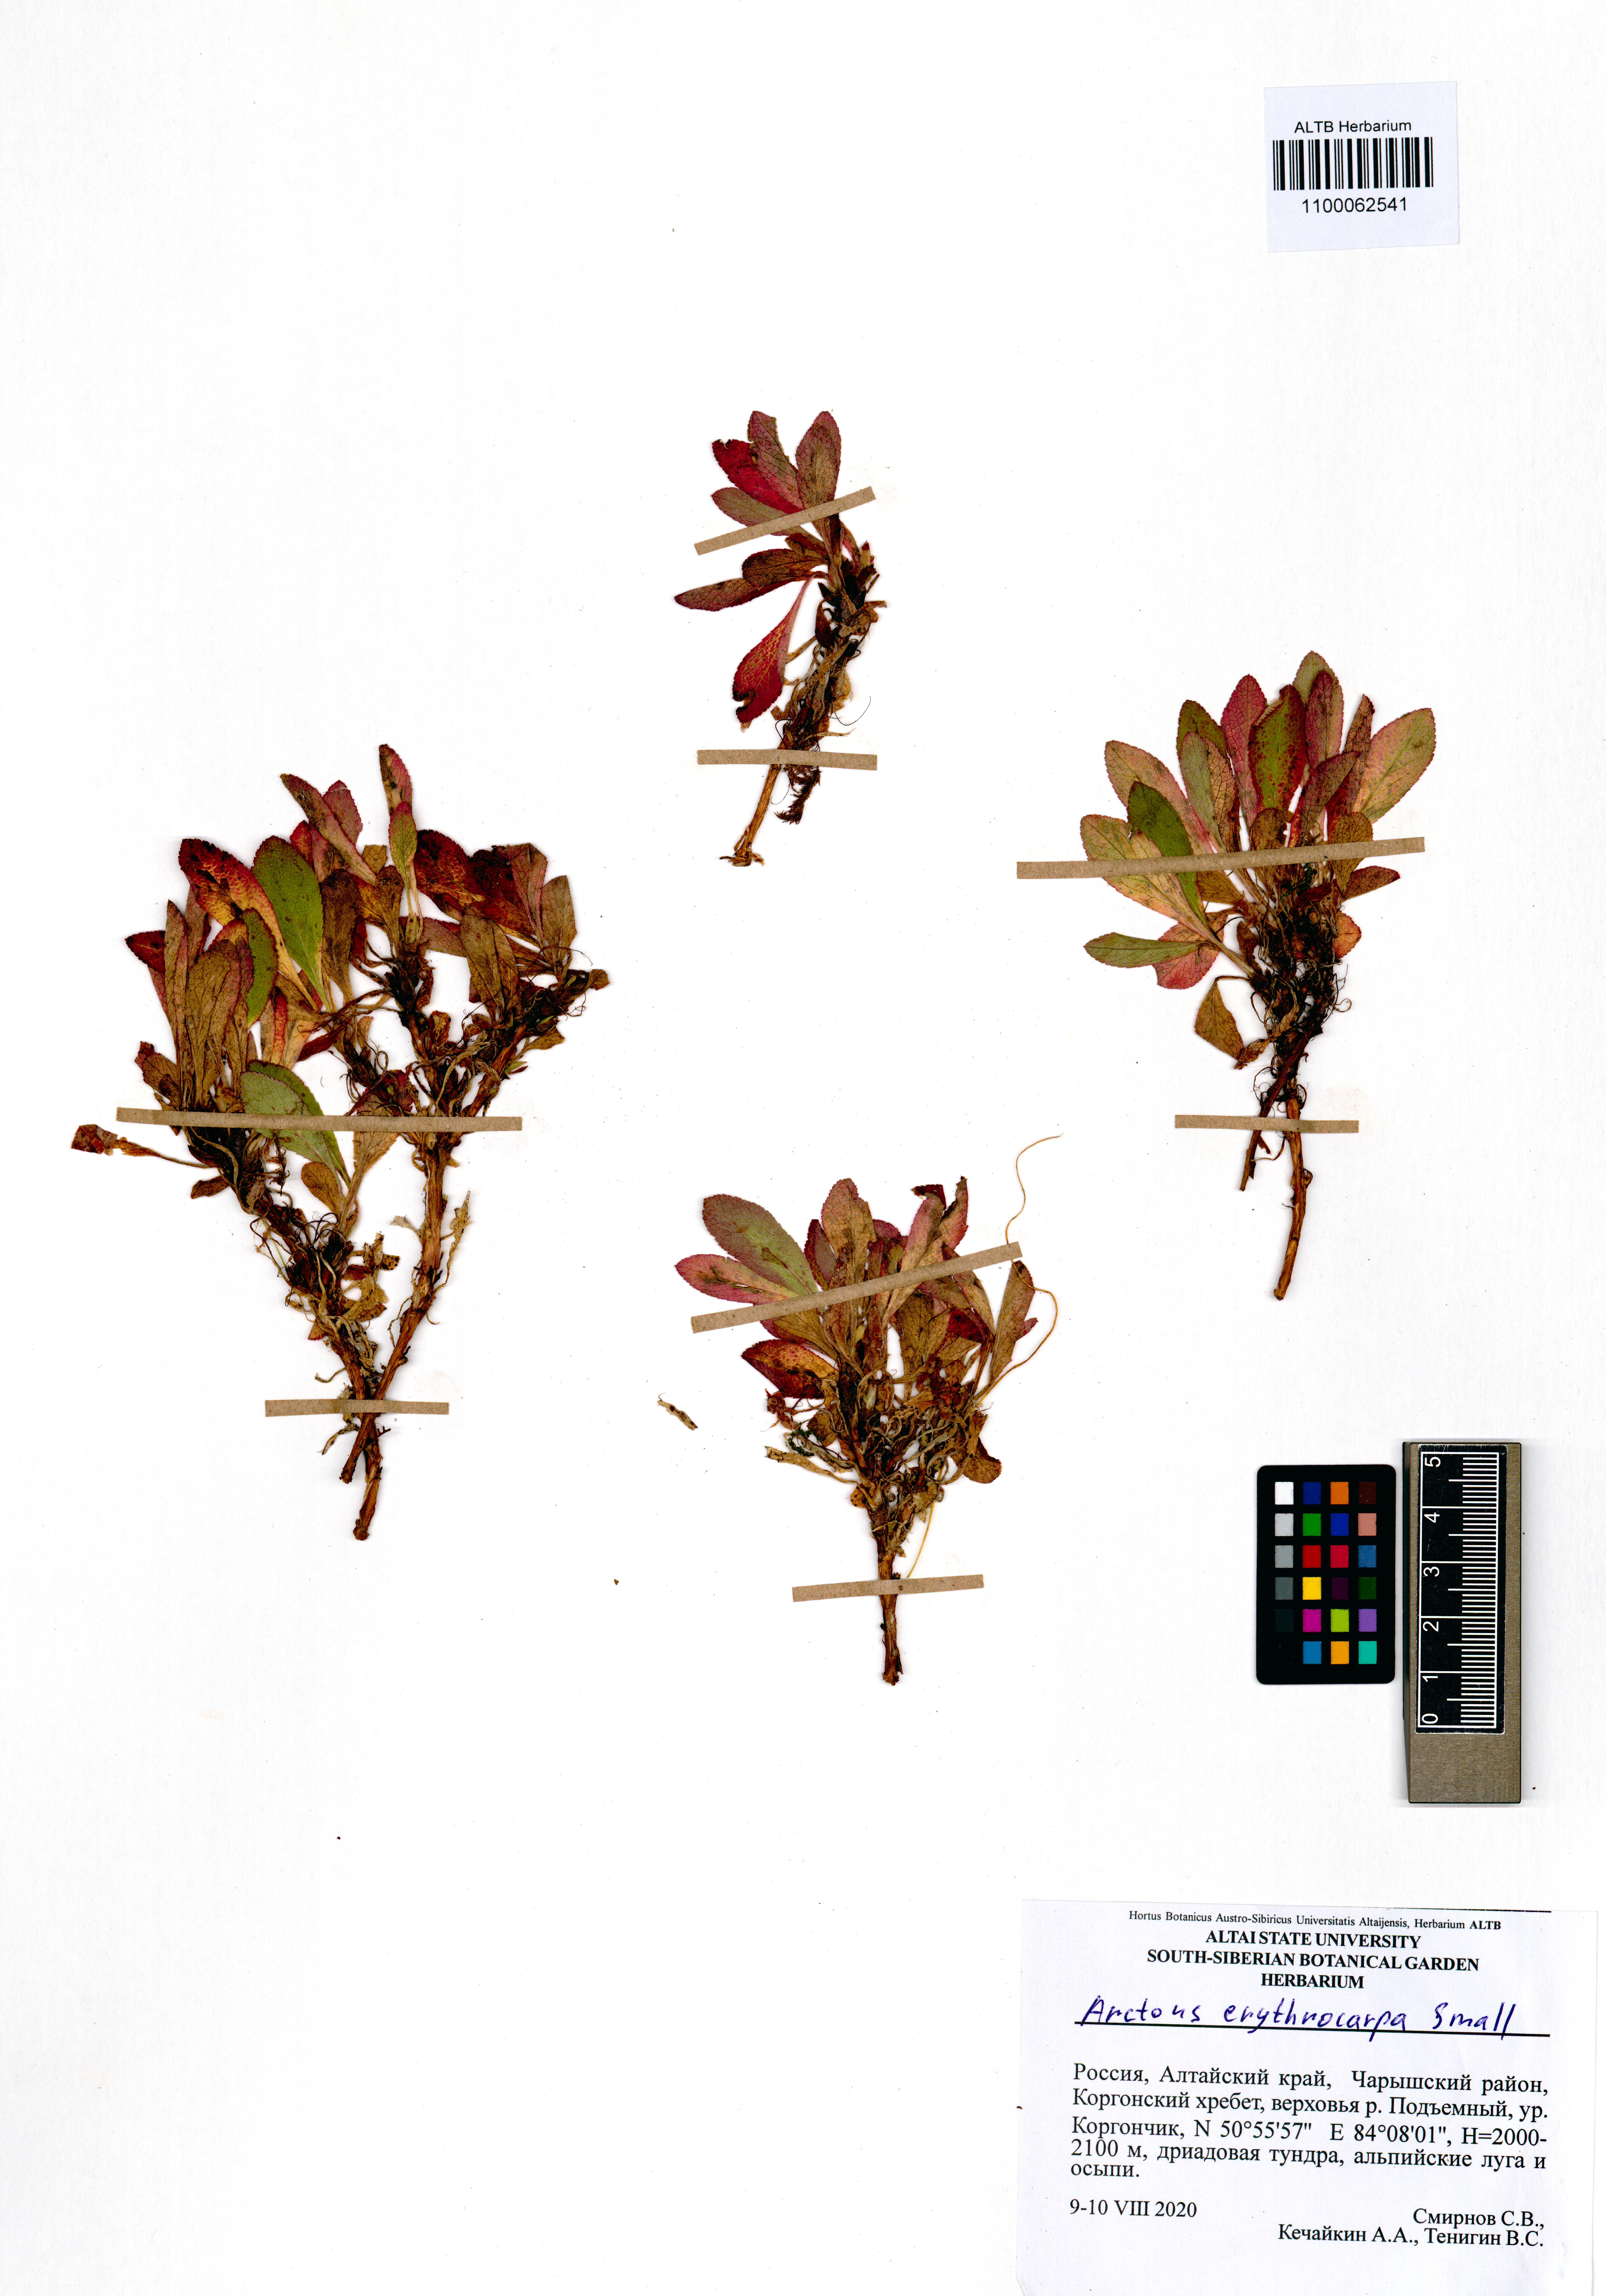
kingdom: Plantae
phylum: Tracheophyta
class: Magnoliopsida
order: Ericales
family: Ericaceae
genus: Arctostaphylos
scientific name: Arctostaphylos rubra
